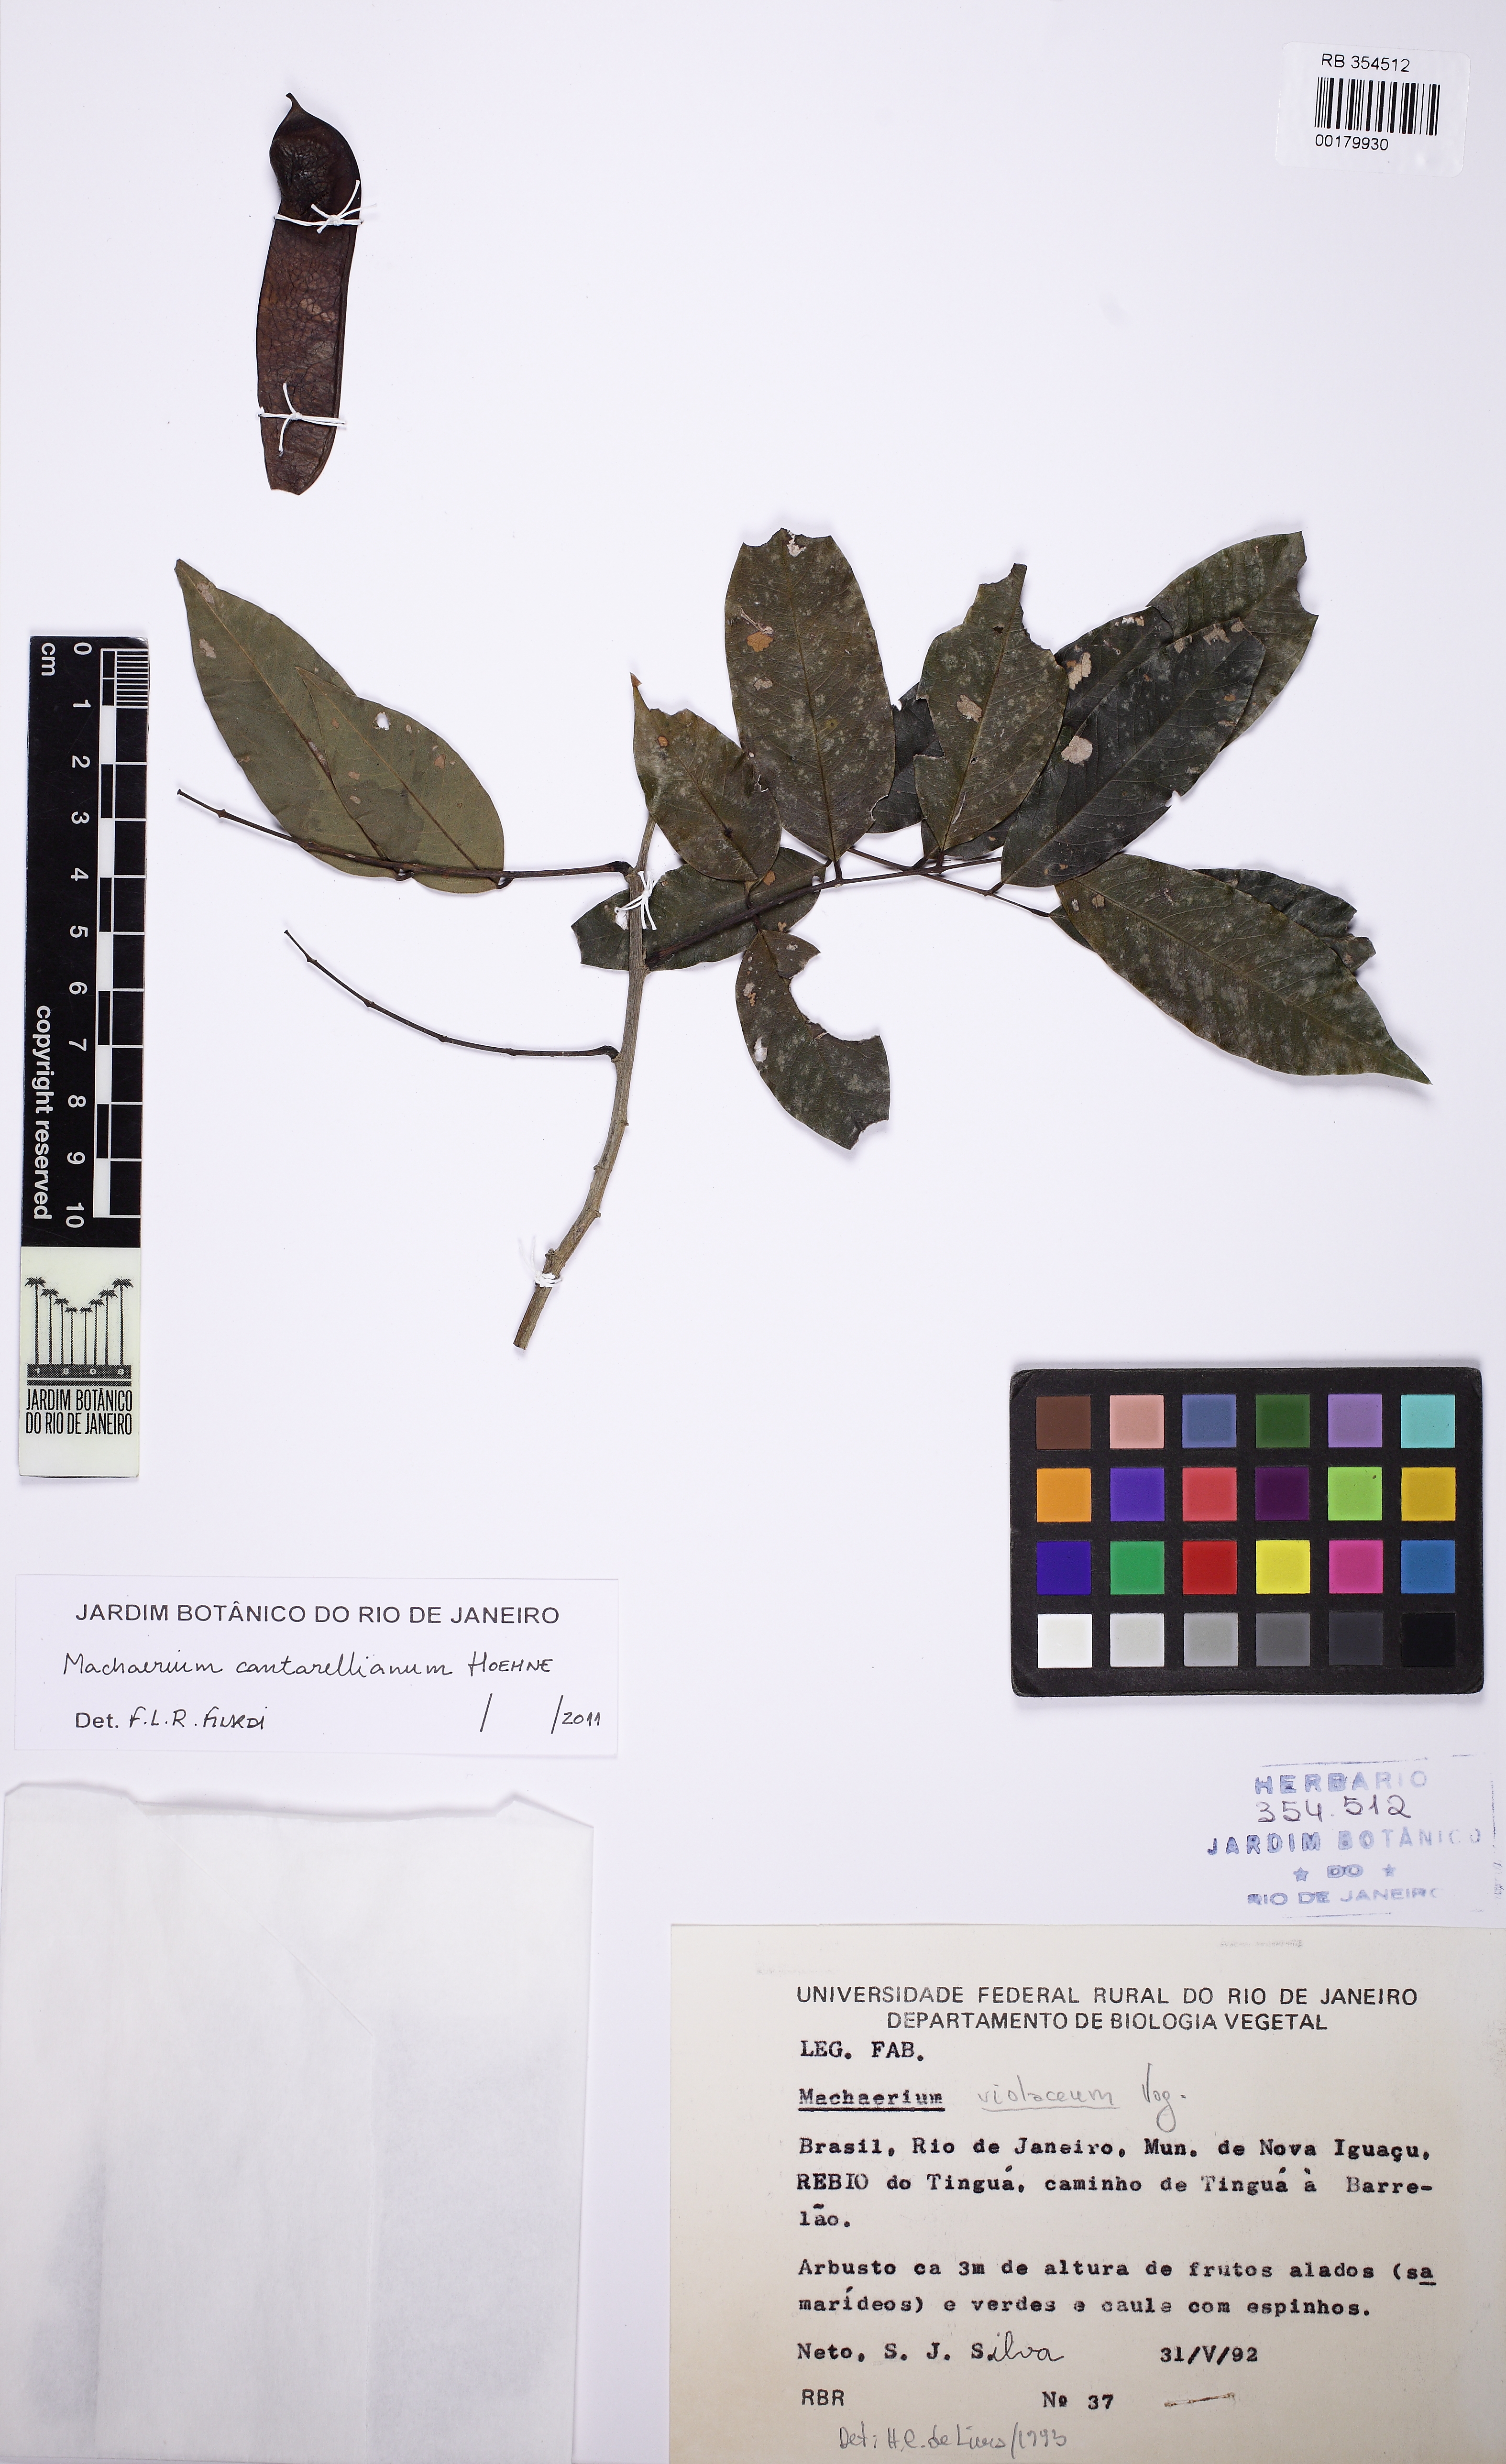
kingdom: Plantae
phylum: Tracheophyta
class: Magnoliopsida
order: Fabales
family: Fabaceae
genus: Machaerium
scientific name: Machaerium cantarellianum
